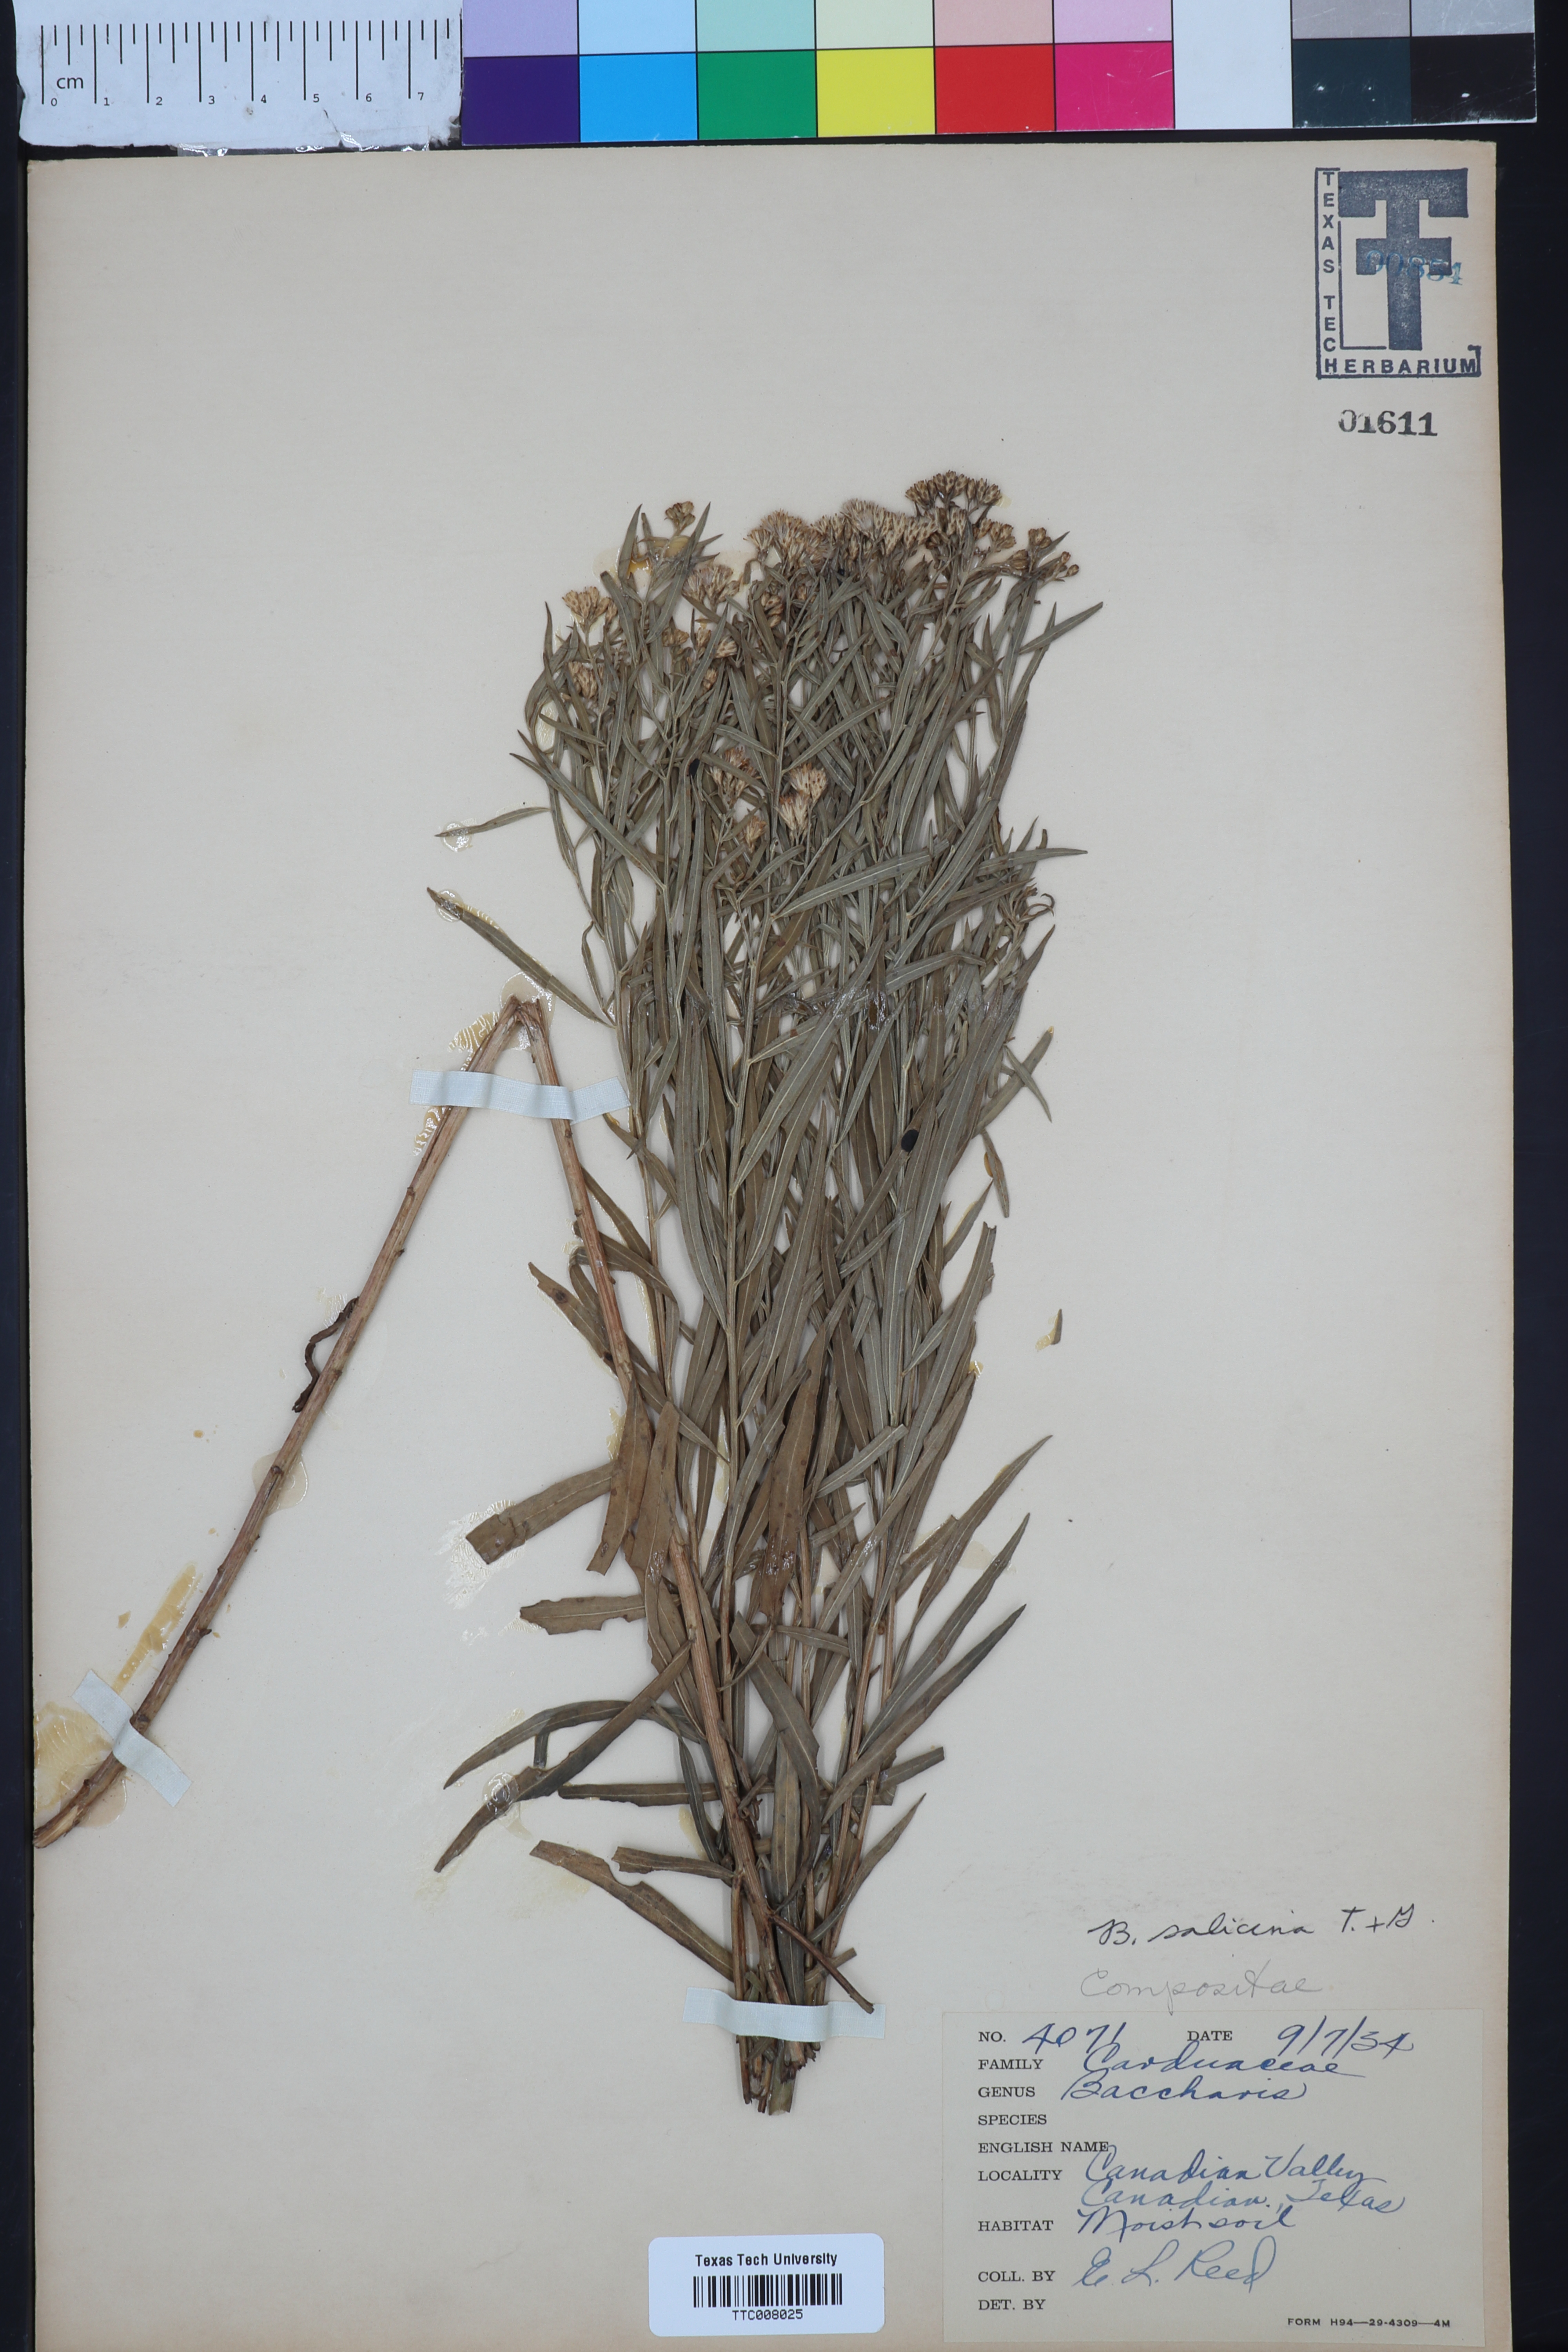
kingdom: Plantae
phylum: Tracheophyta
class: Magnoliopsida
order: Asterales
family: Asteraceae
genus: Baccharis
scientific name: Baccharis salicina
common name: Willow baccharis
